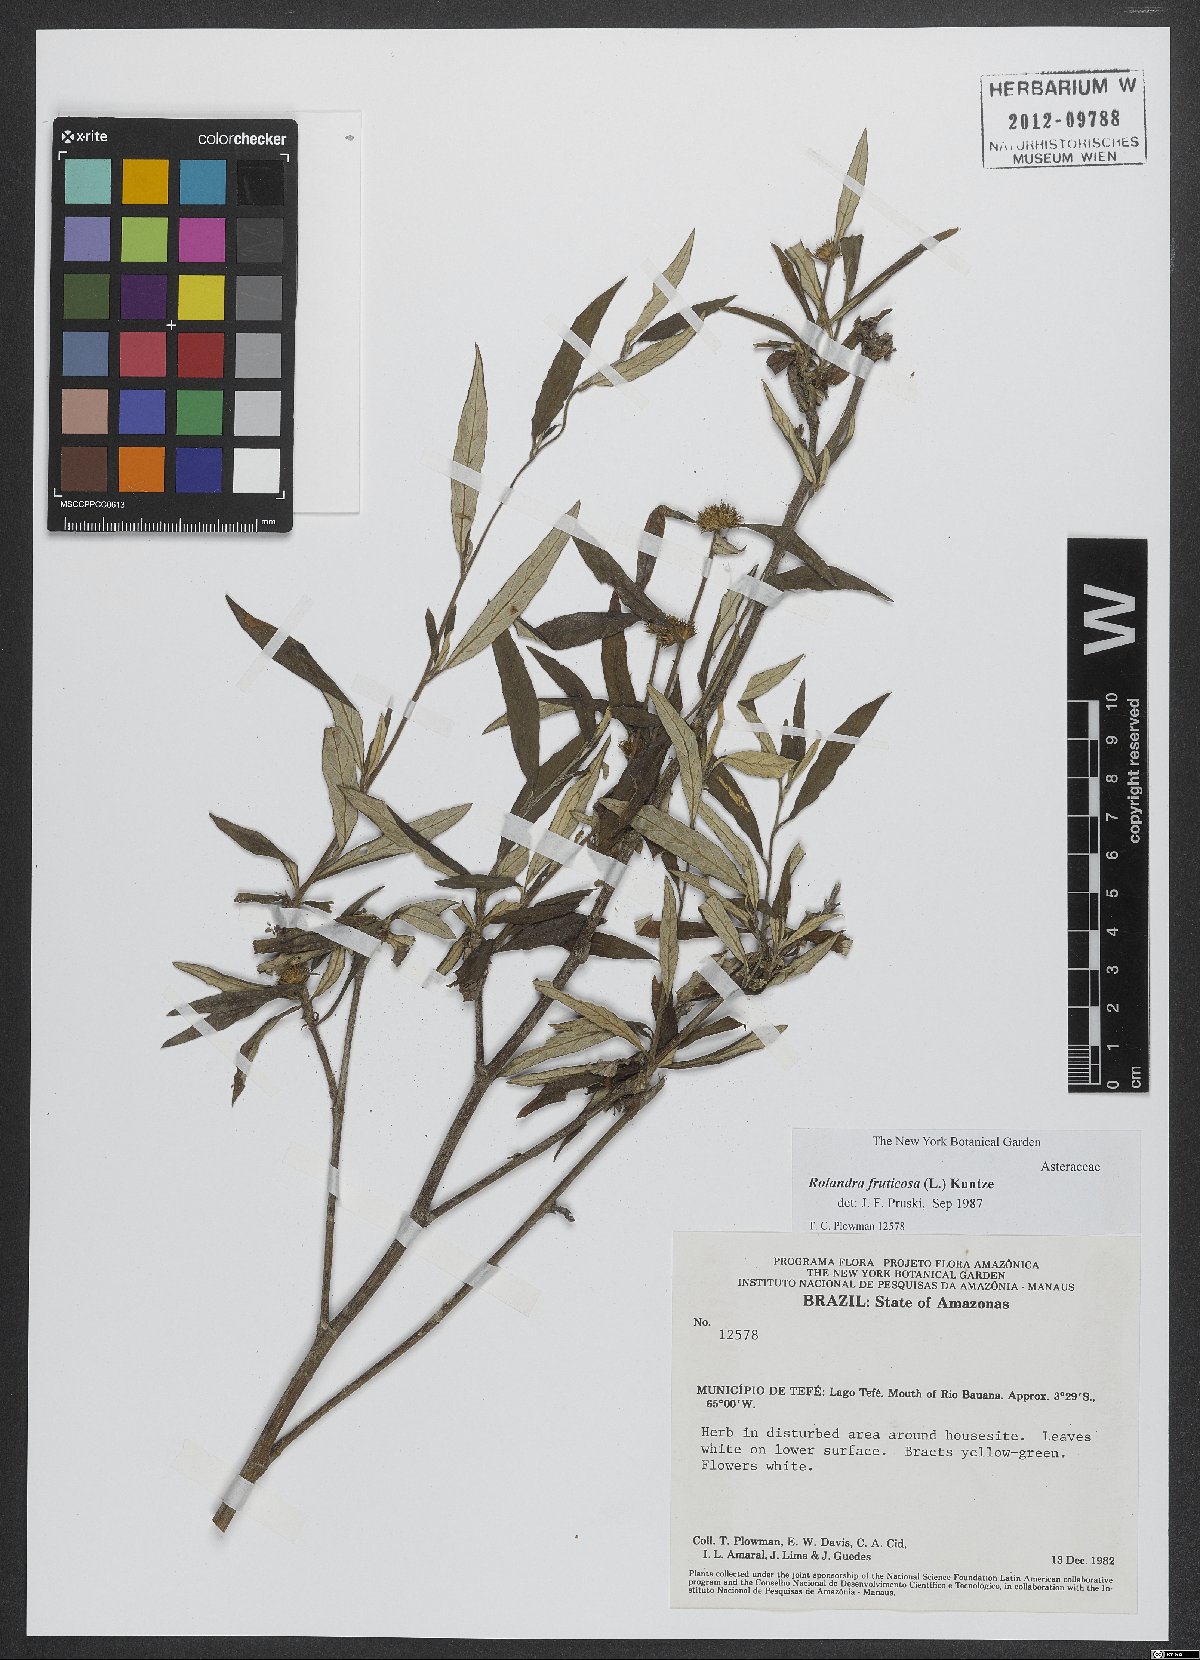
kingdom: Plantae
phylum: Tracheophyta
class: Magnoliopsida
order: Asterales
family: Asteraceae
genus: Rolandra
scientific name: Rolandra fruticosa
